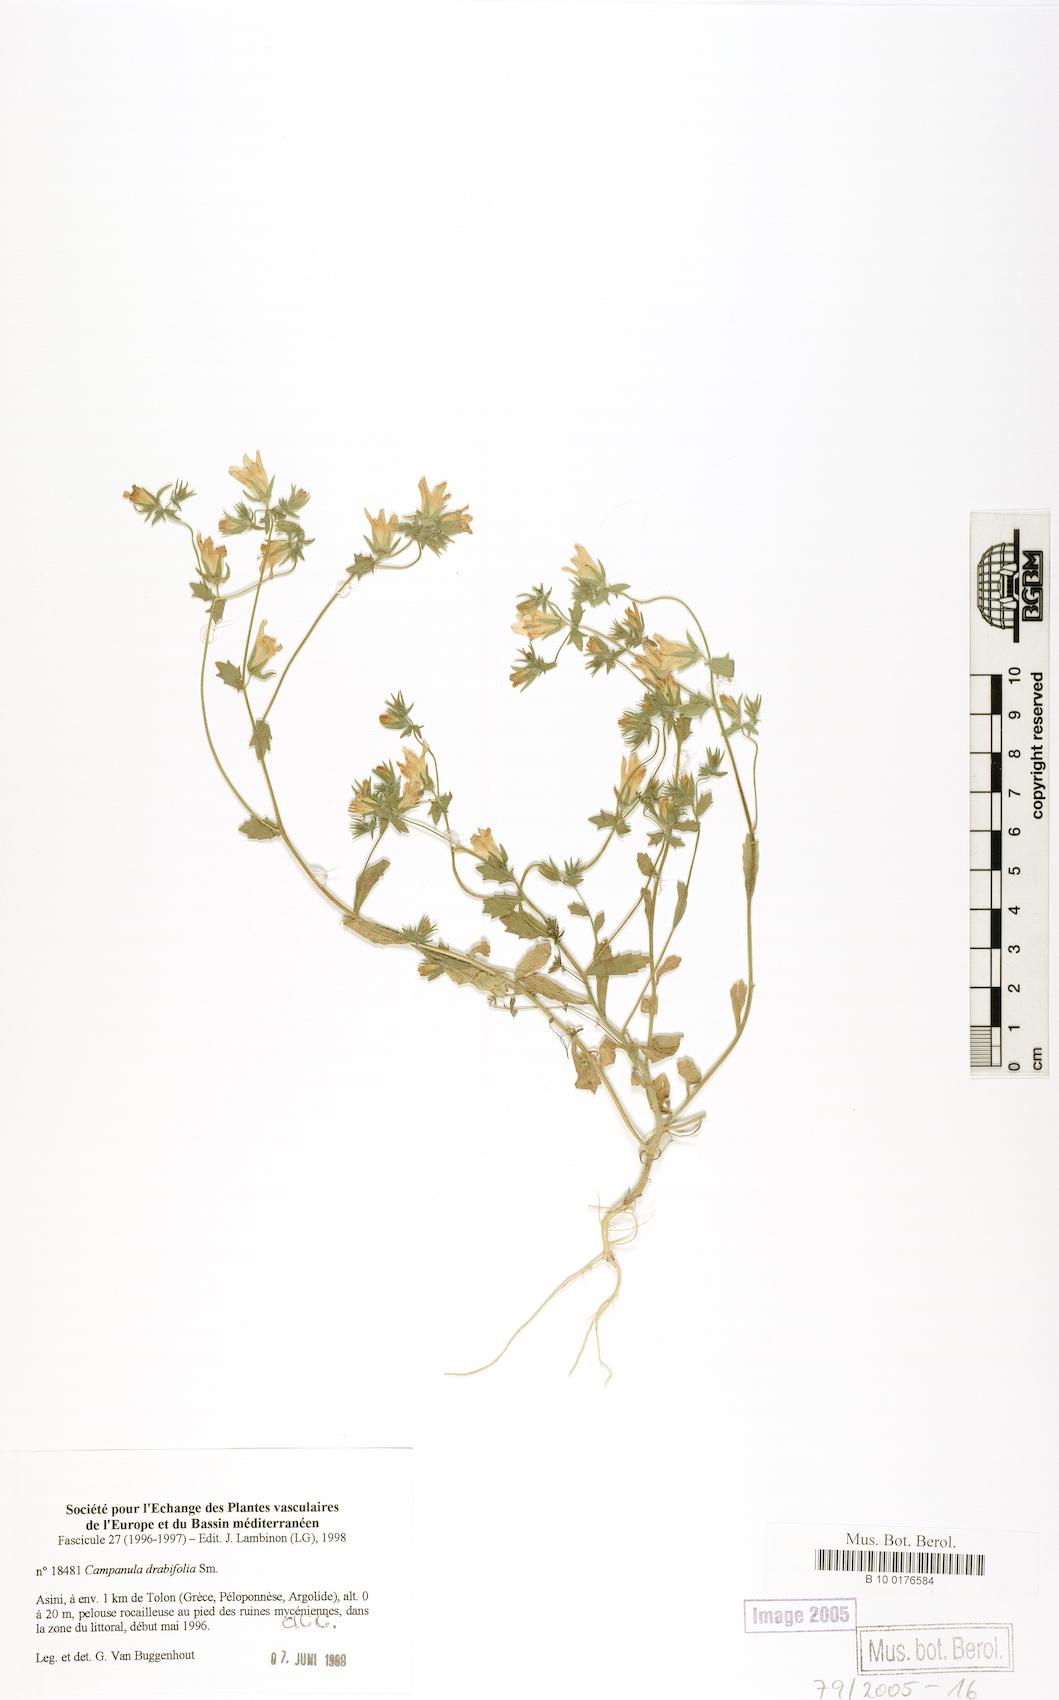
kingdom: Plantae
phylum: Tracheophyta
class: Magnoliopsida
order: Asterales
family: Campanulaceae
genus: Campanula
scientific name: Campanula drabifolia
